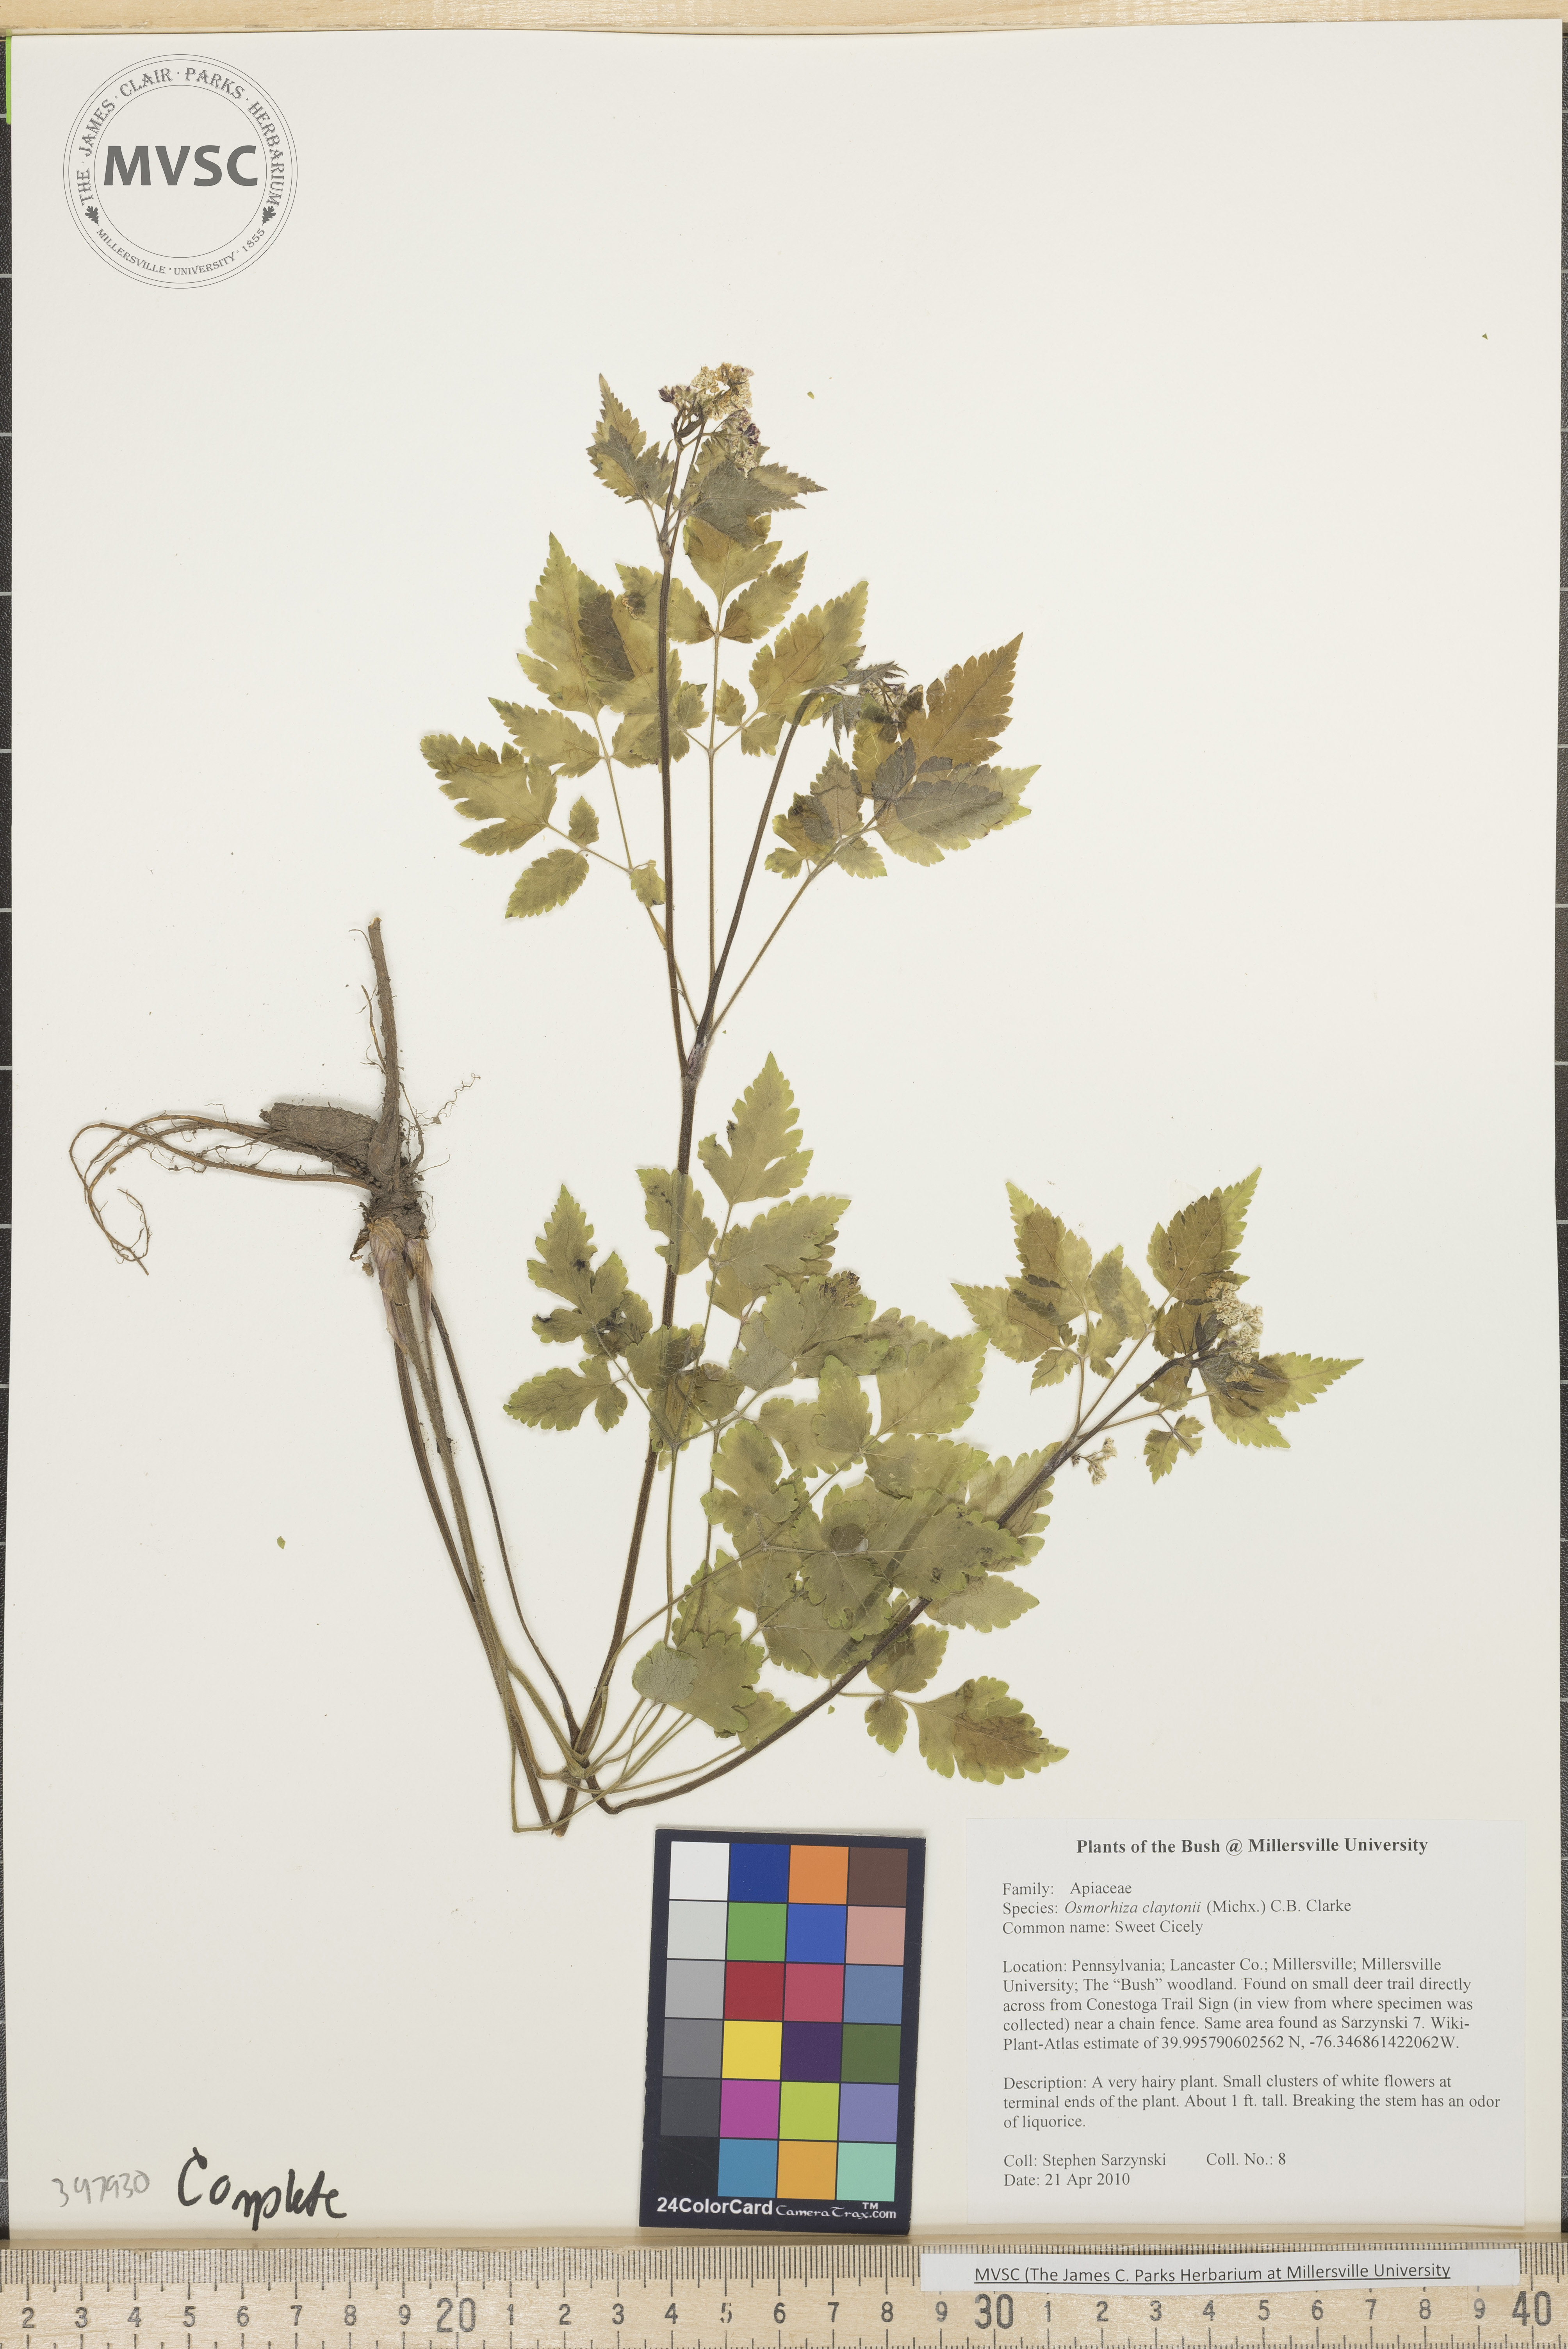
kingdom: Plantae
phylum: Tracheophyta
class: Magnoliopsida
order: Apiales
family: Apiaceae
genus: Osmorhiza
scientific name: Osmorhiza claytonii
